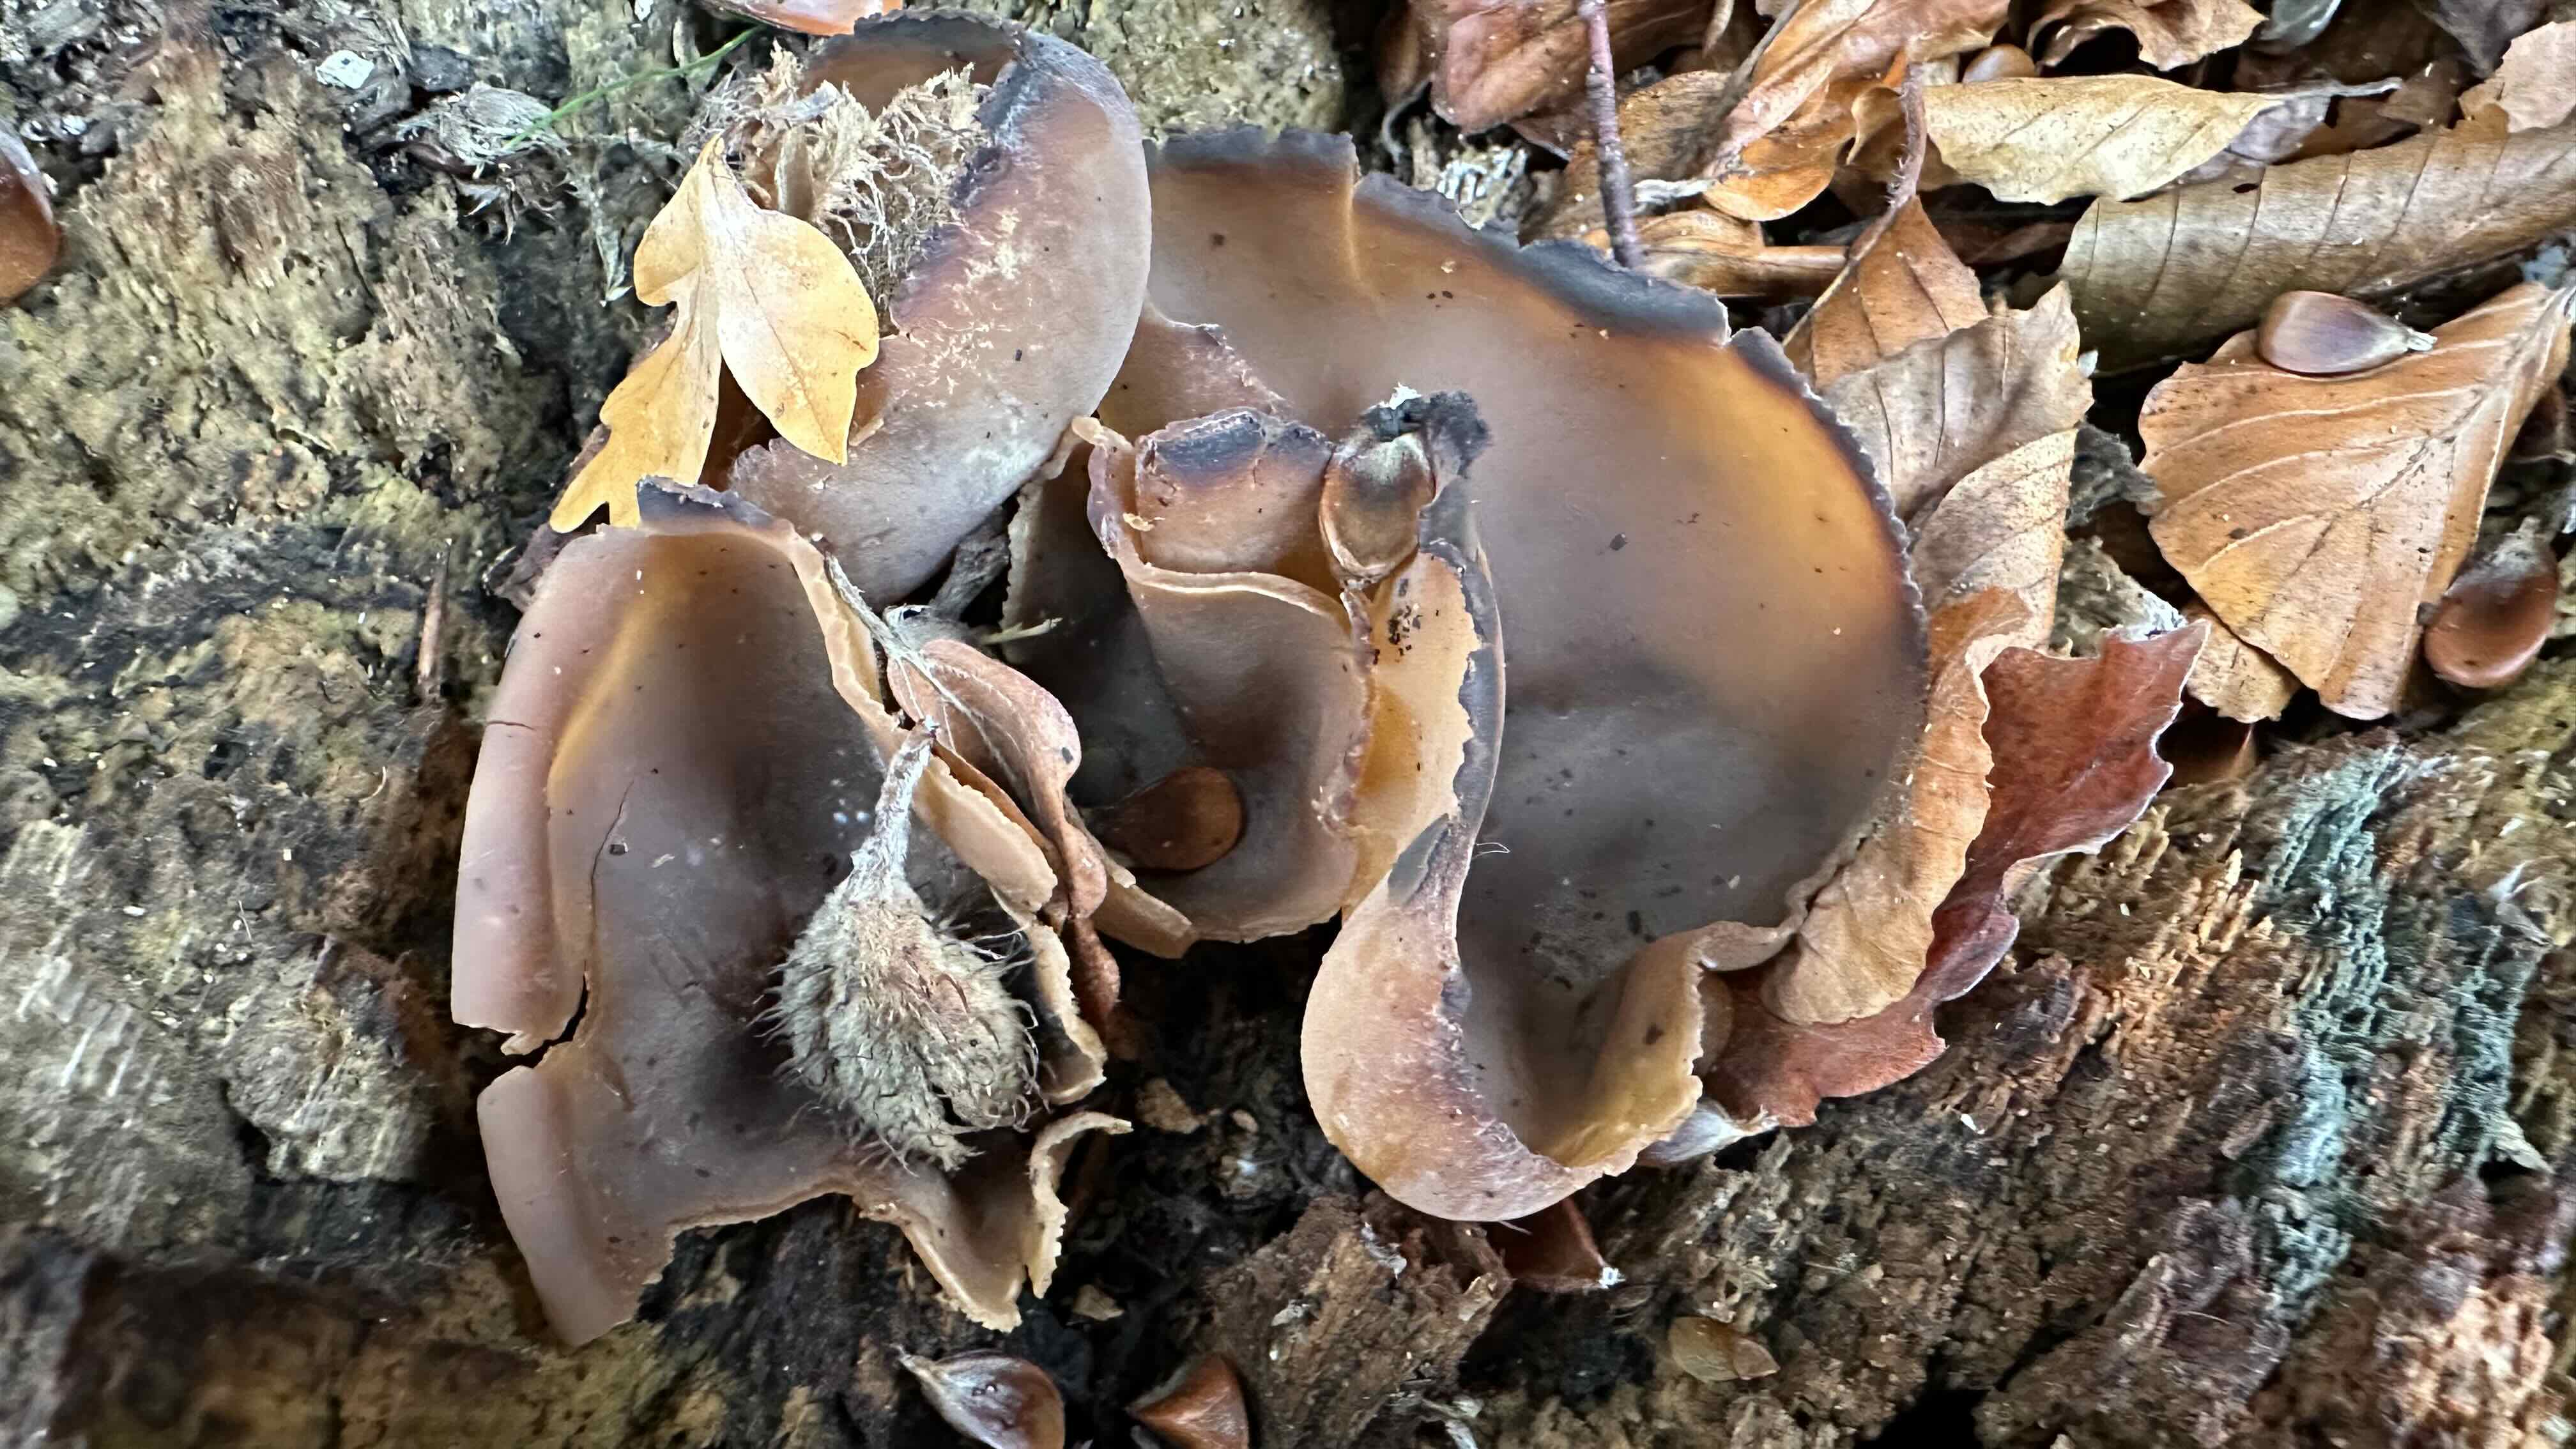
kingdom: Fungi
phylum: Ascomycota
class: Pezizomycetes
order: Pezizales
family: Pezizaceae
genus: Peziza
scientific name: Peziza varia
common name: Ved-bægersvamp
